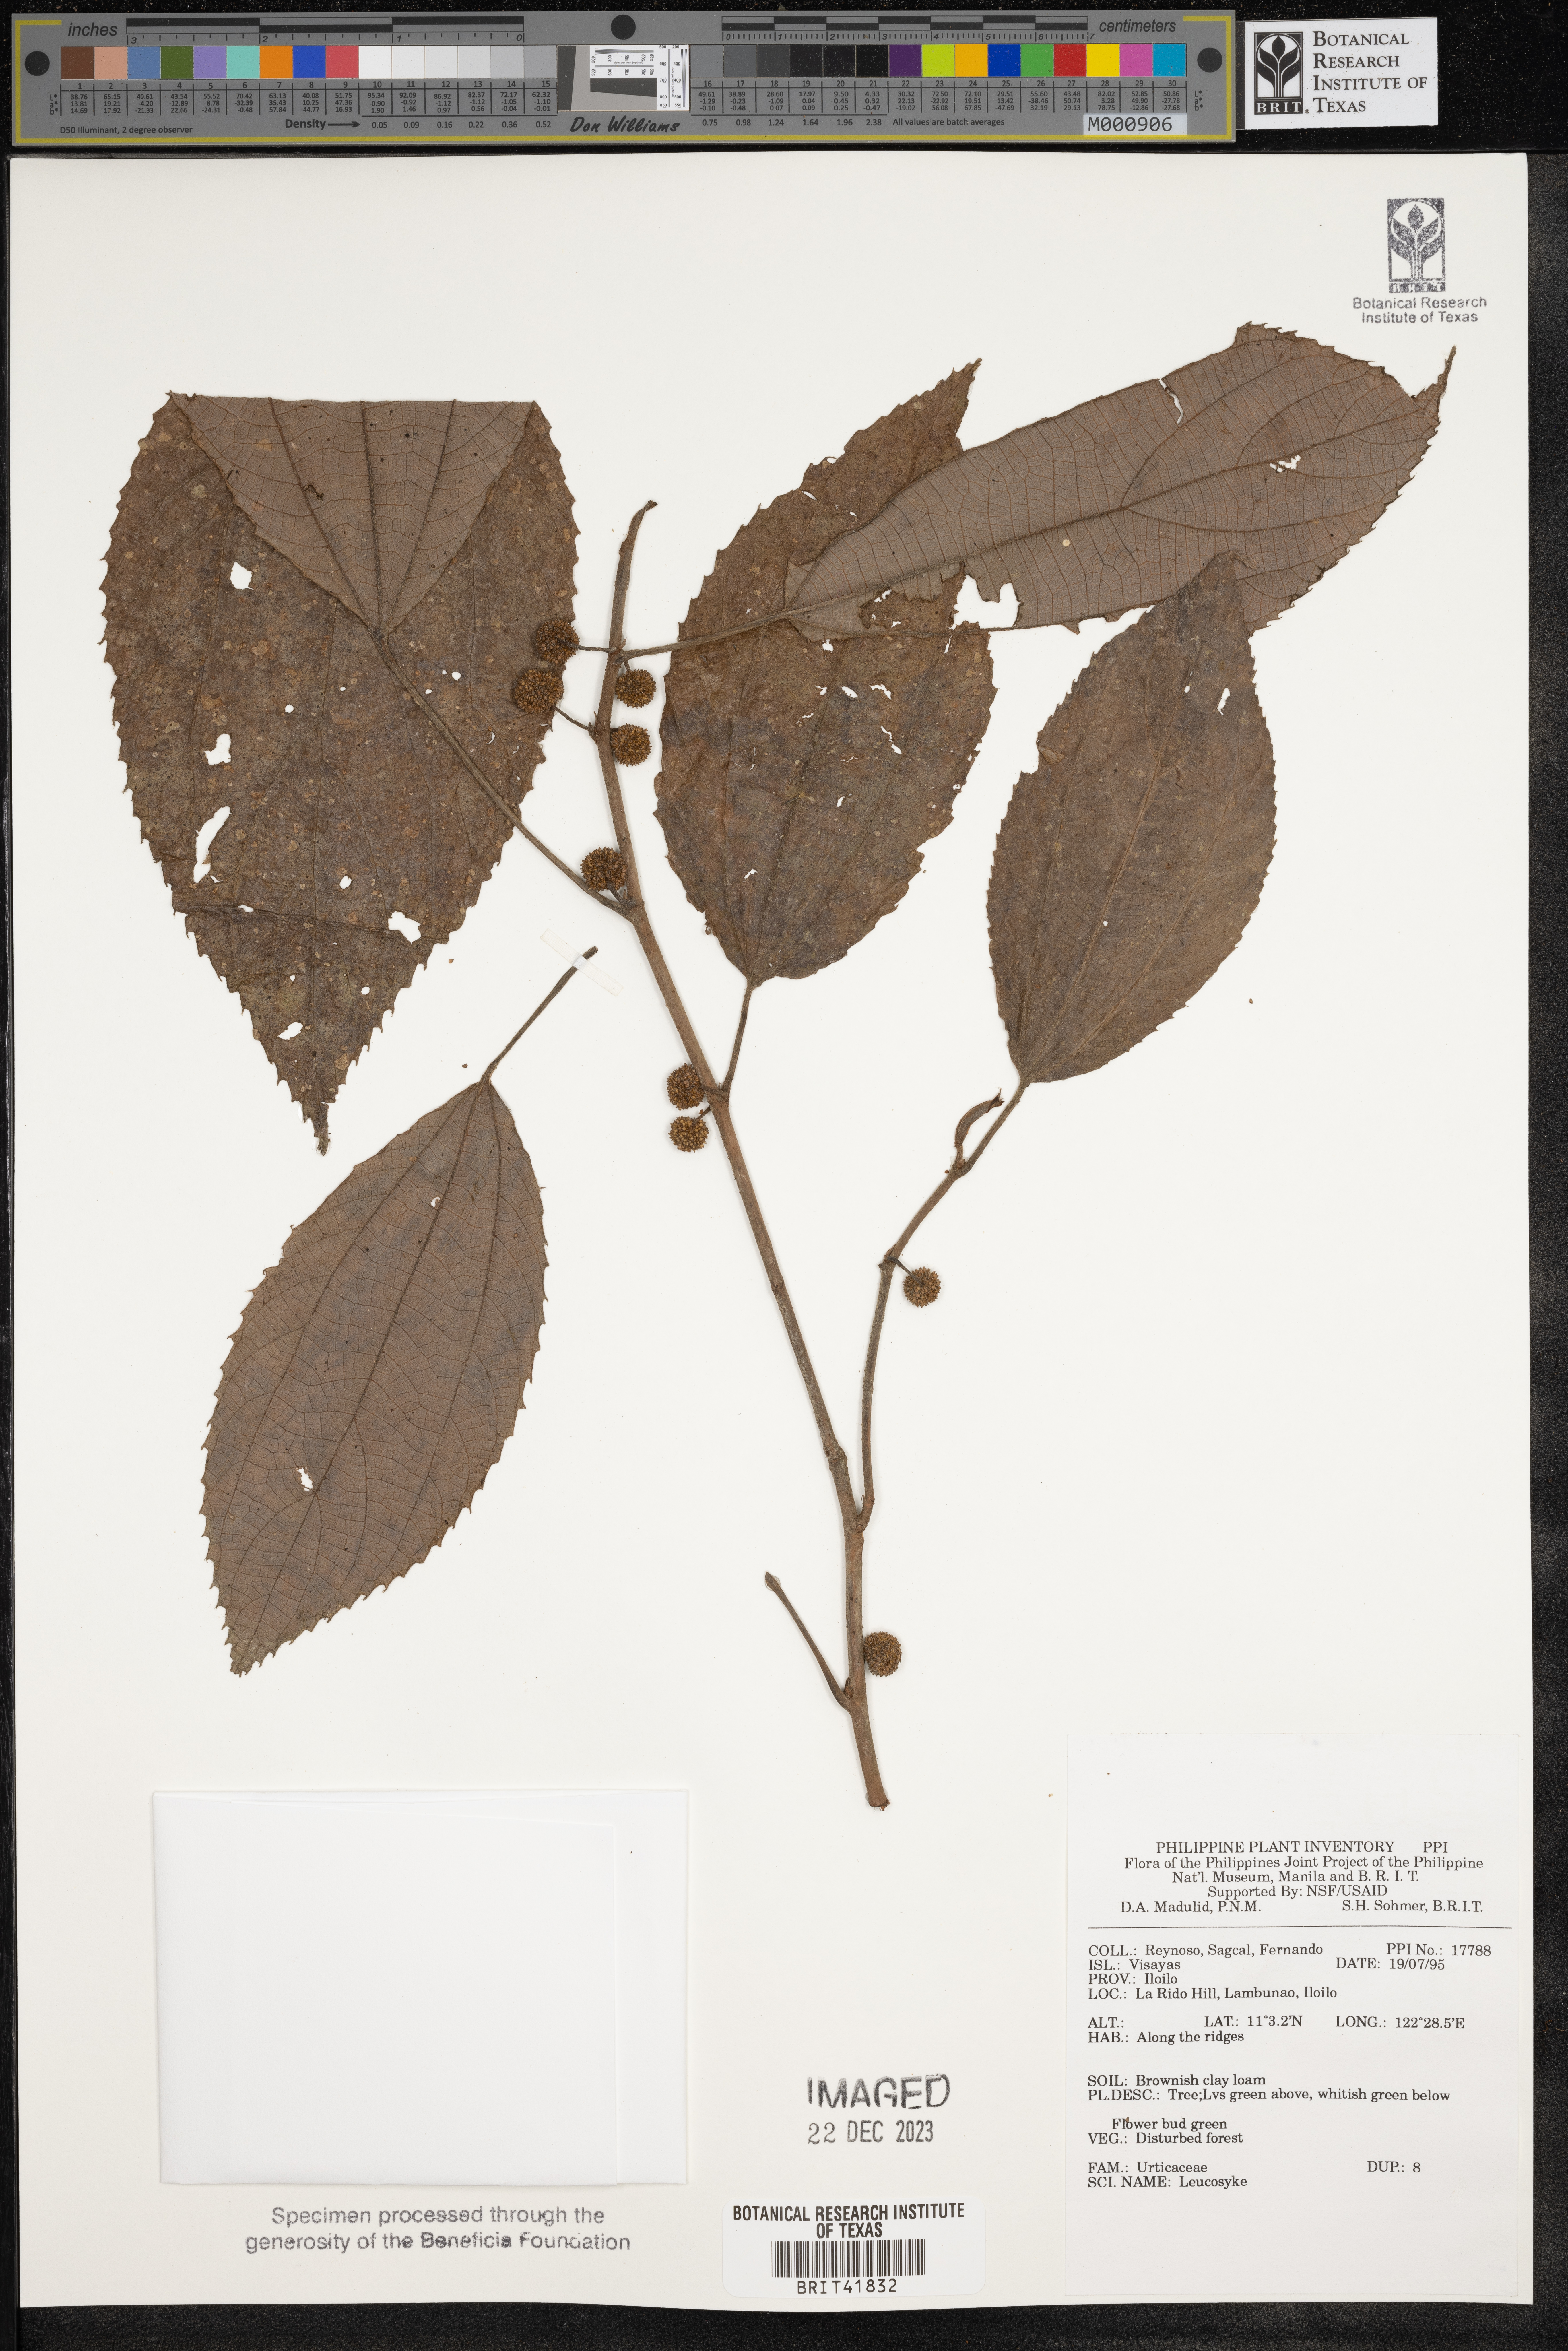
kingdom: Plantae
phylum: Tracheophyta
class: Magnoliopsida
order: Rosales
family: Urticaceae
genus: Leucosyke
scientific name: Leucosyke
